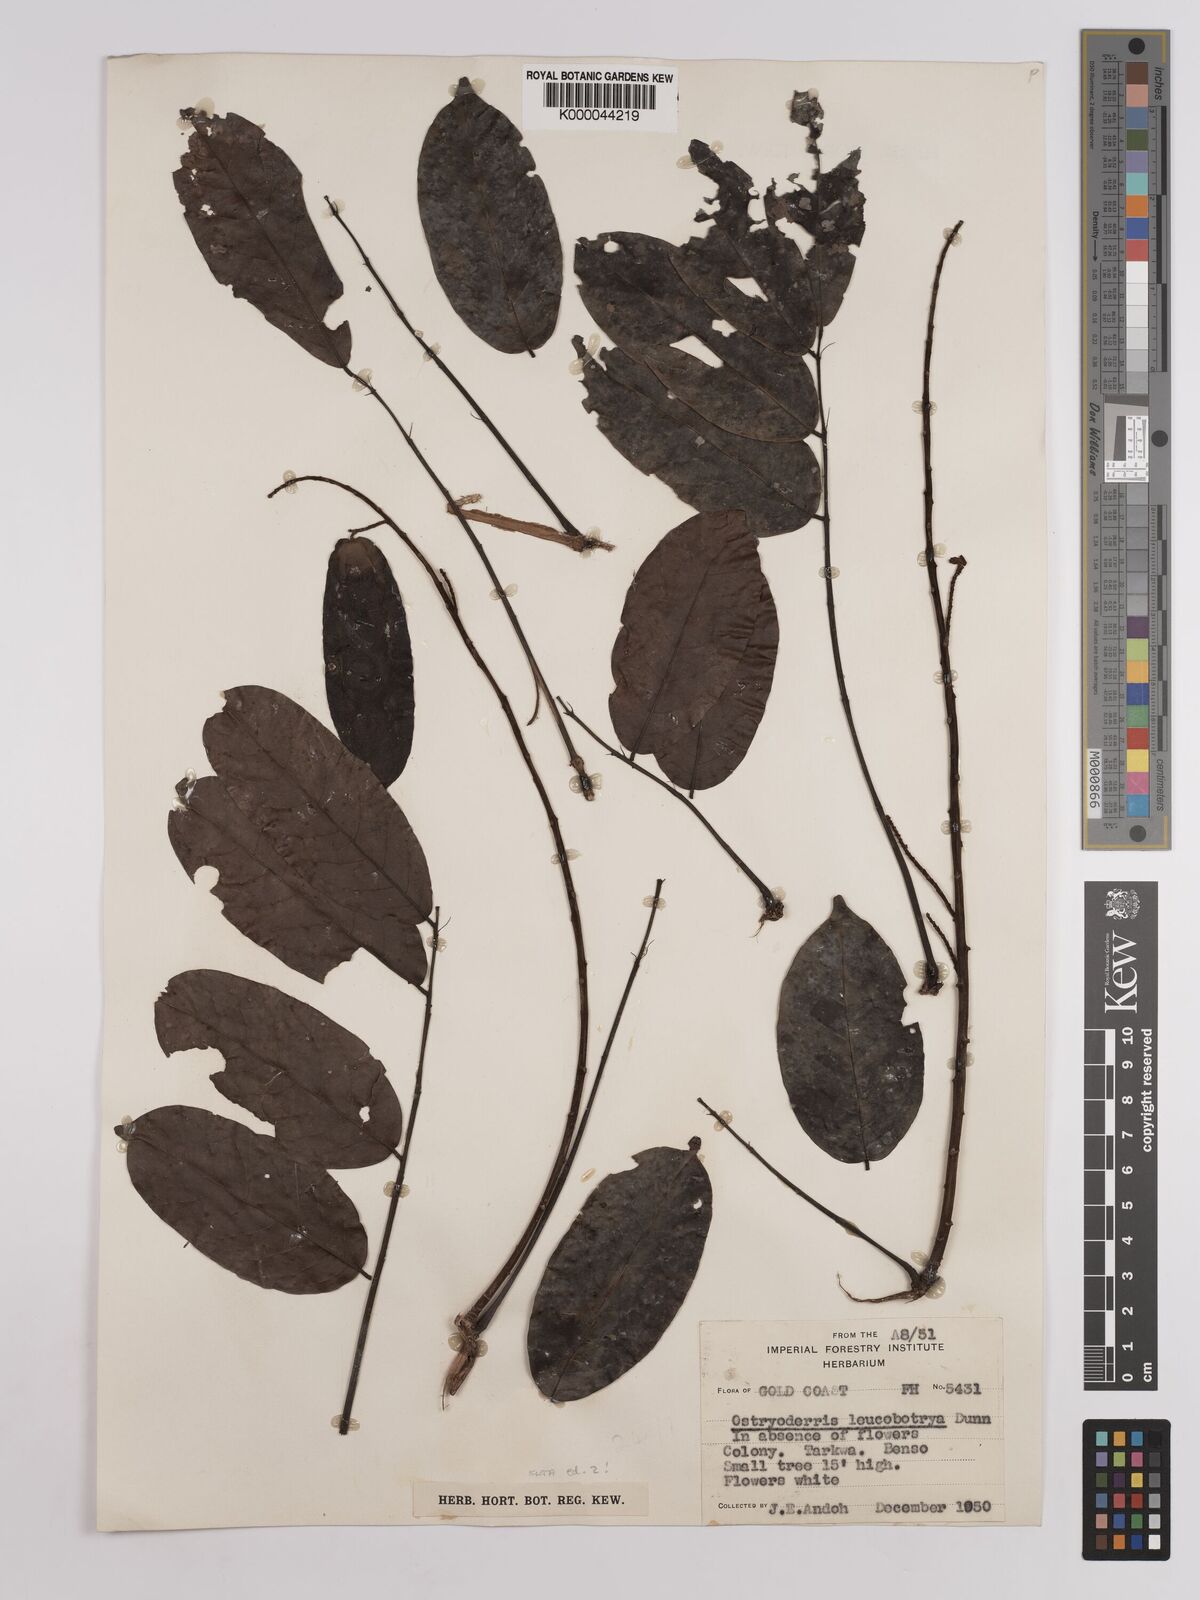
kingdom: Plantae
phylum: Tracheophyta
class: Magnoliopsida
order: Fabales
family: Fabaceae
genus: Aganope
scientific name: Aganope leucobotrya
